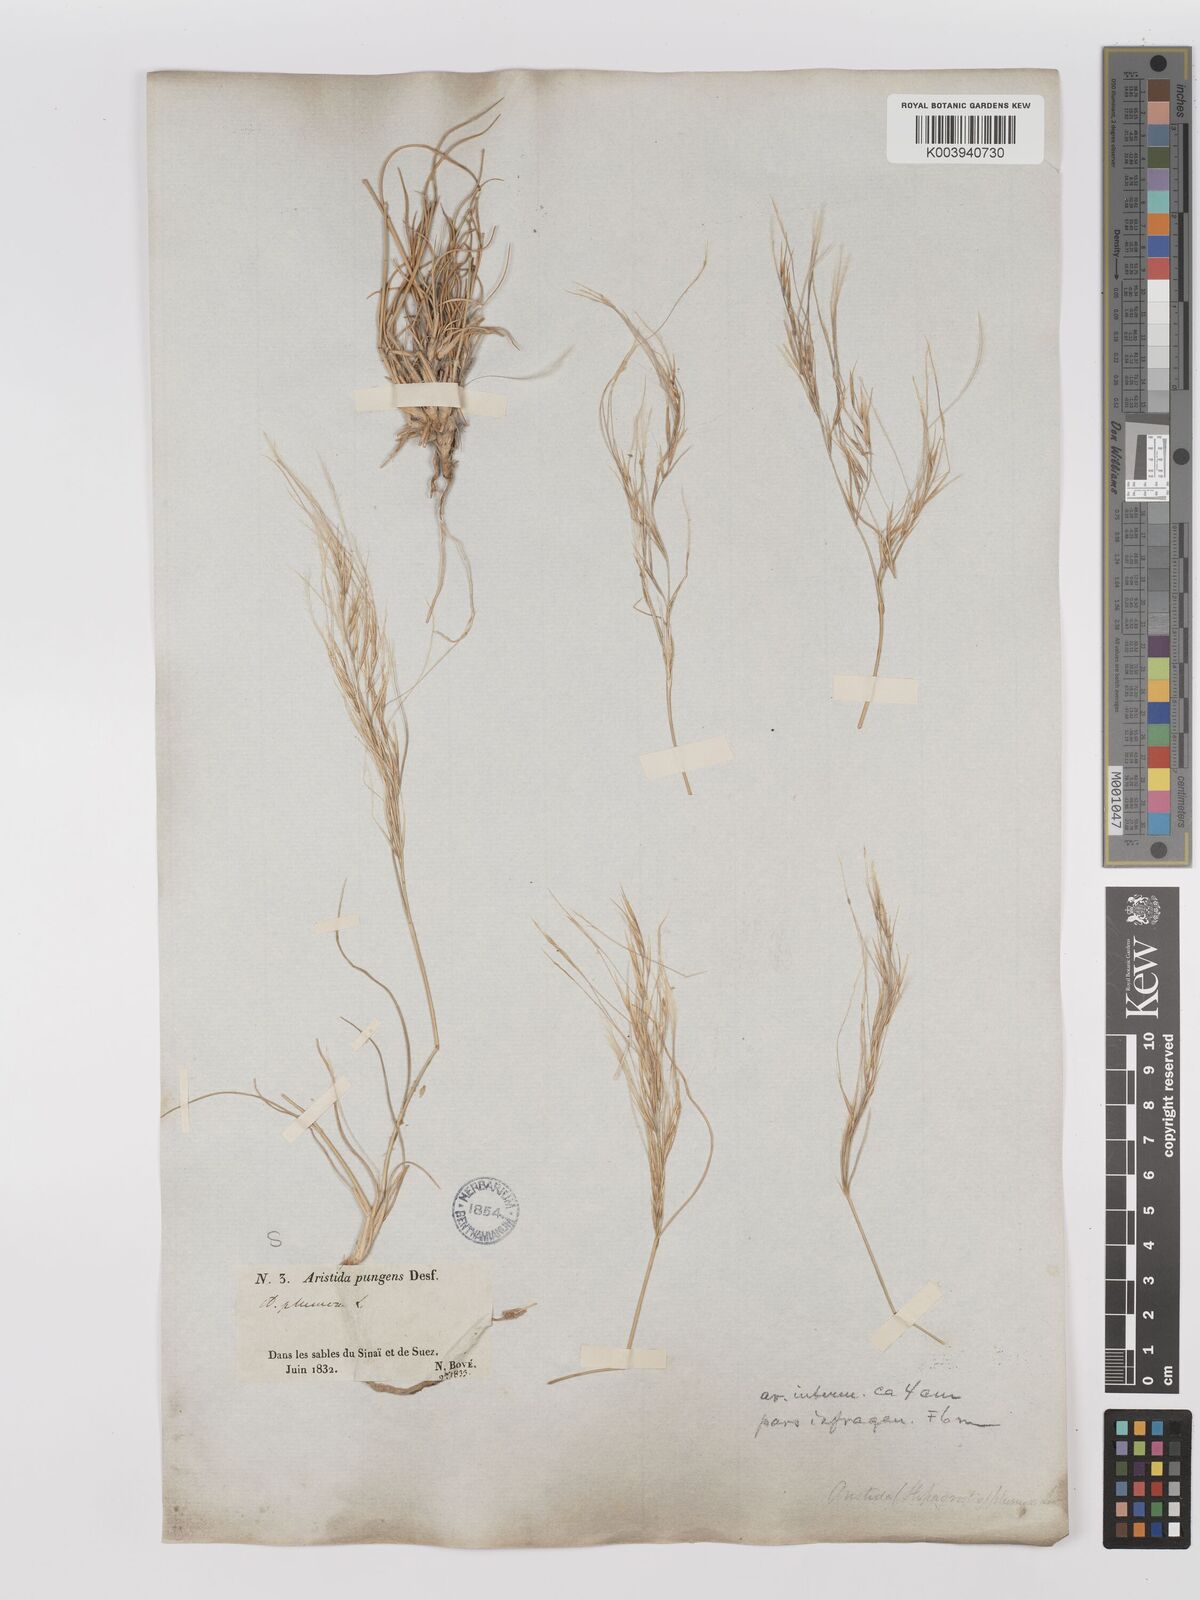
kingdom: Plantae
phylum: Tracheophyta
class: Liliopsida
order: Poales
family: Poaceae
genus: Stipagrostis
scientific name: Stipagrostis plumosa
